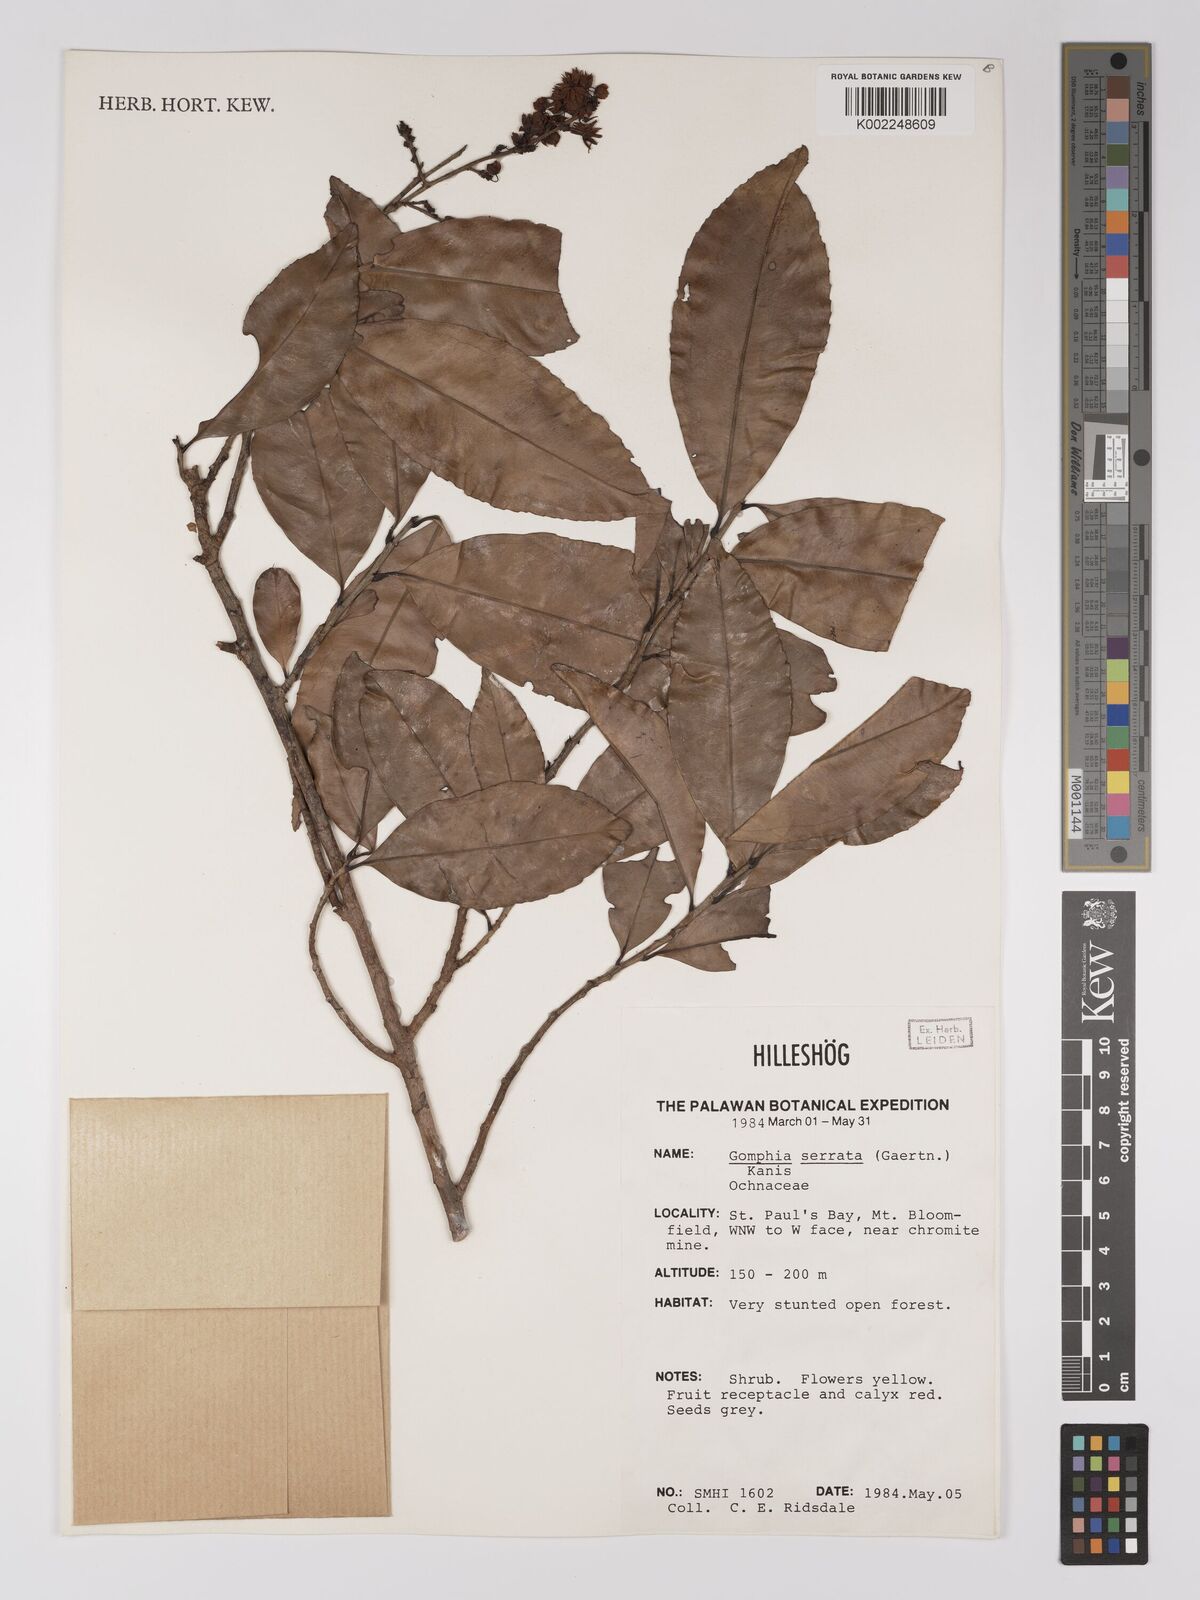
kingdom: Plantae
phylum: Tracheophyta
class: Magnoliopsida
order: Malpighiales
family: Ochnaceae
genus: Gomphia
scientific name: Gomphia serrata
